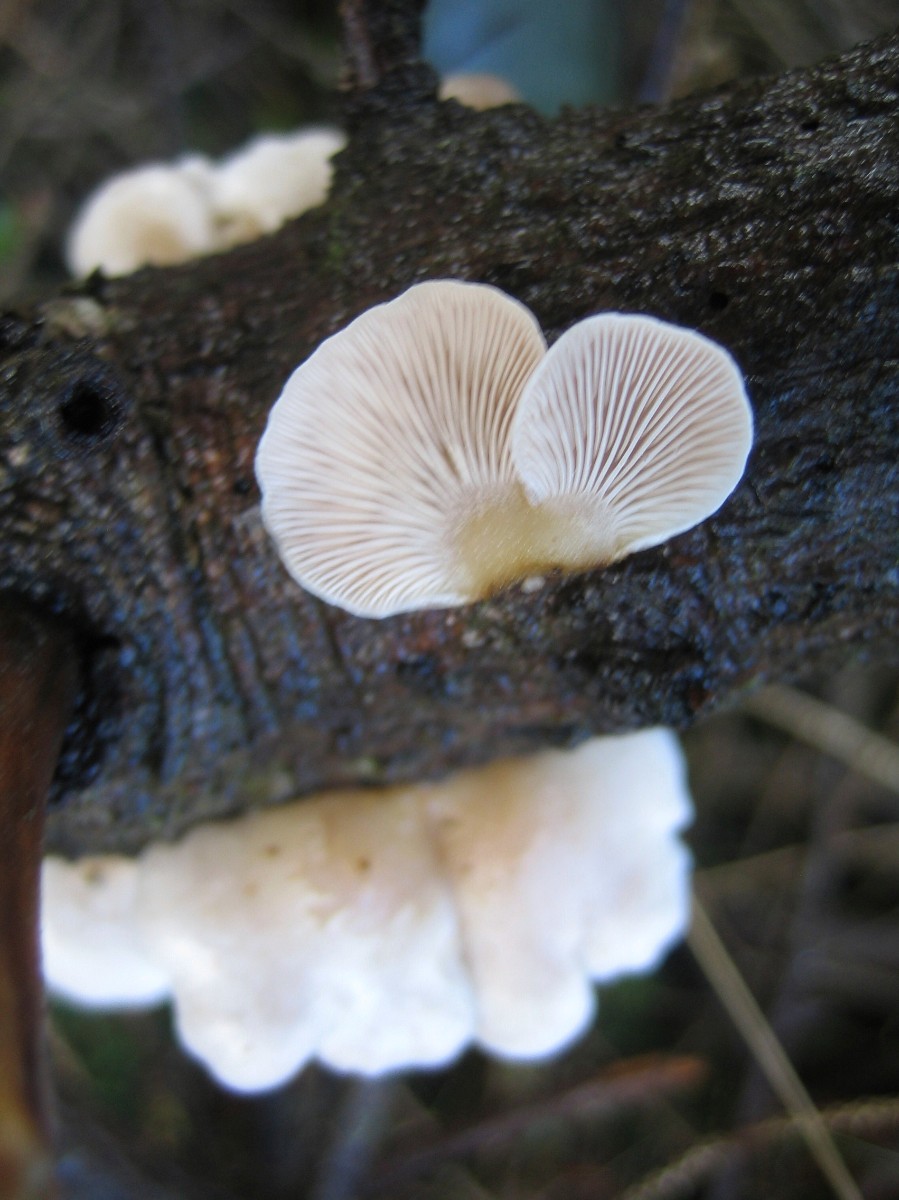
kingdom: Fungi
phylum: Basidiomycota
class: Agaricomycetes
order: Agaricales
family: Mycenaceae
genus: Panellus
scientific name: Panellus mitis
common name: mild epaulethat
